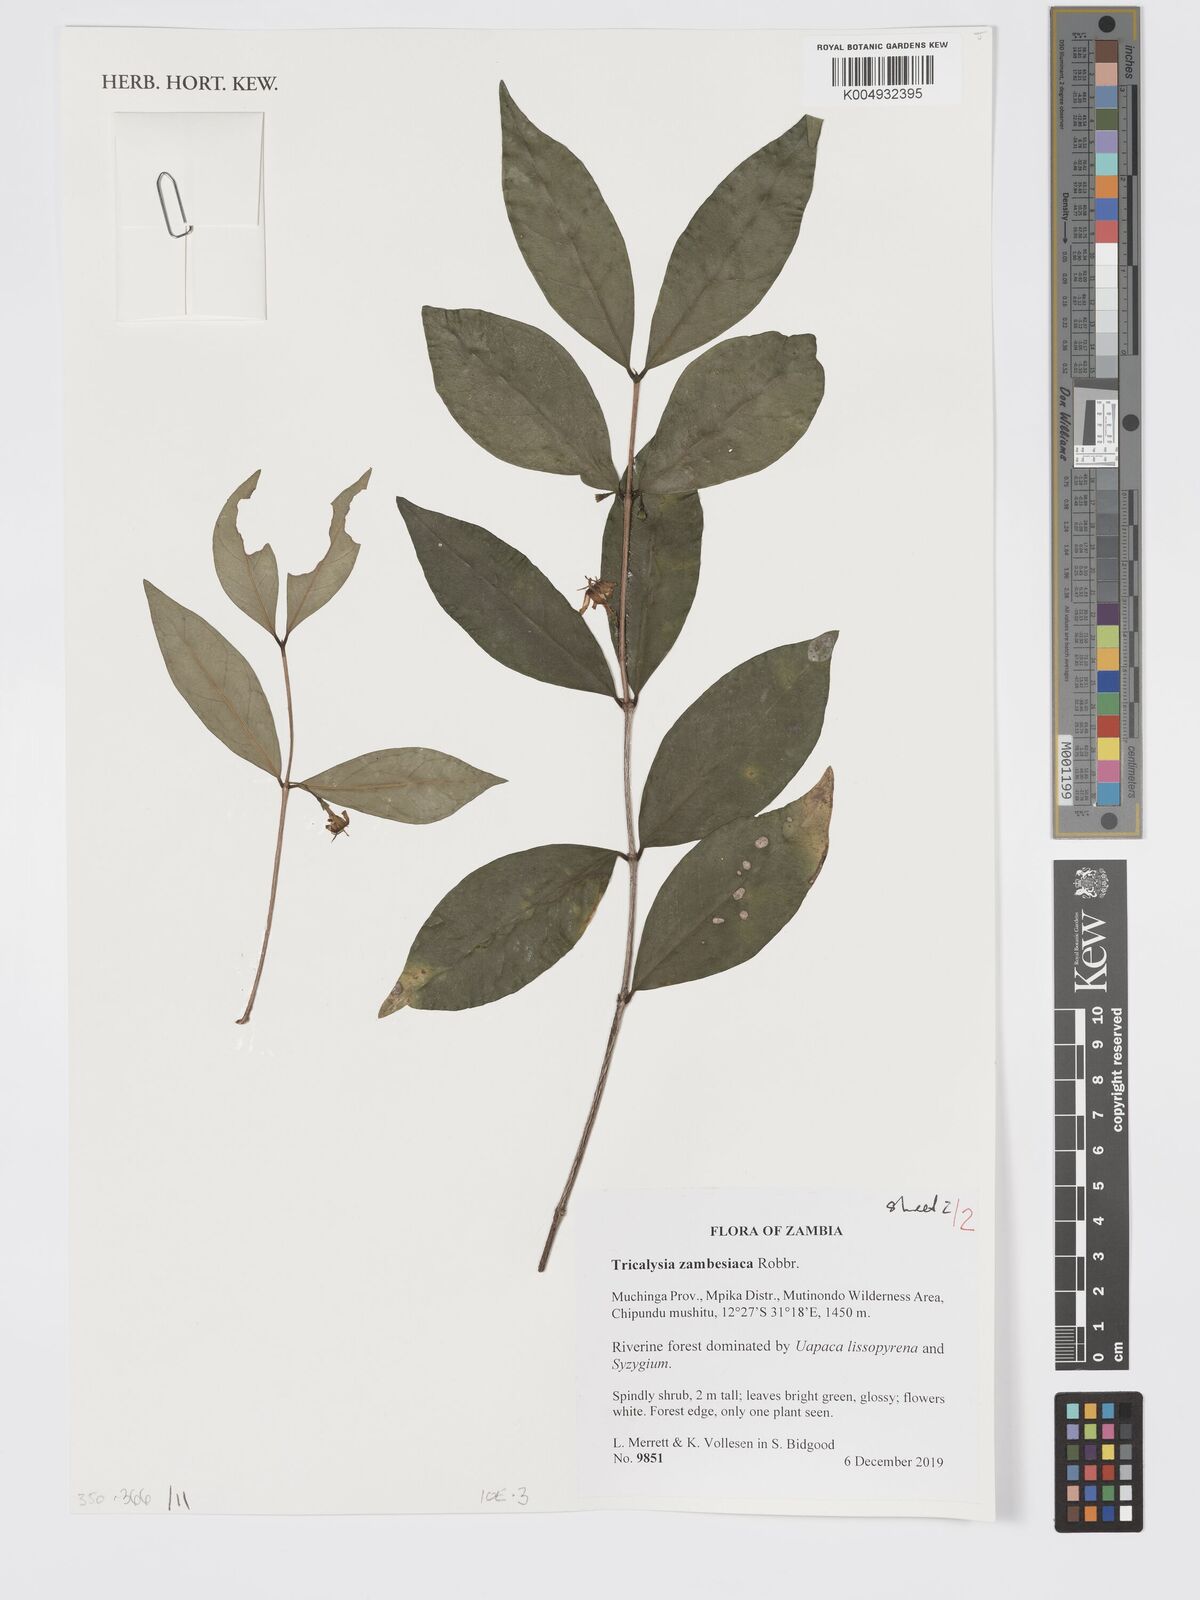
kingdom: Plantae
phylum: Tracheophyta
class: Magnoliopsida
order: Gentianales
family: Rubiaceae
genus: Tricalysia
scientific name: Tricalysia zambesiaca
